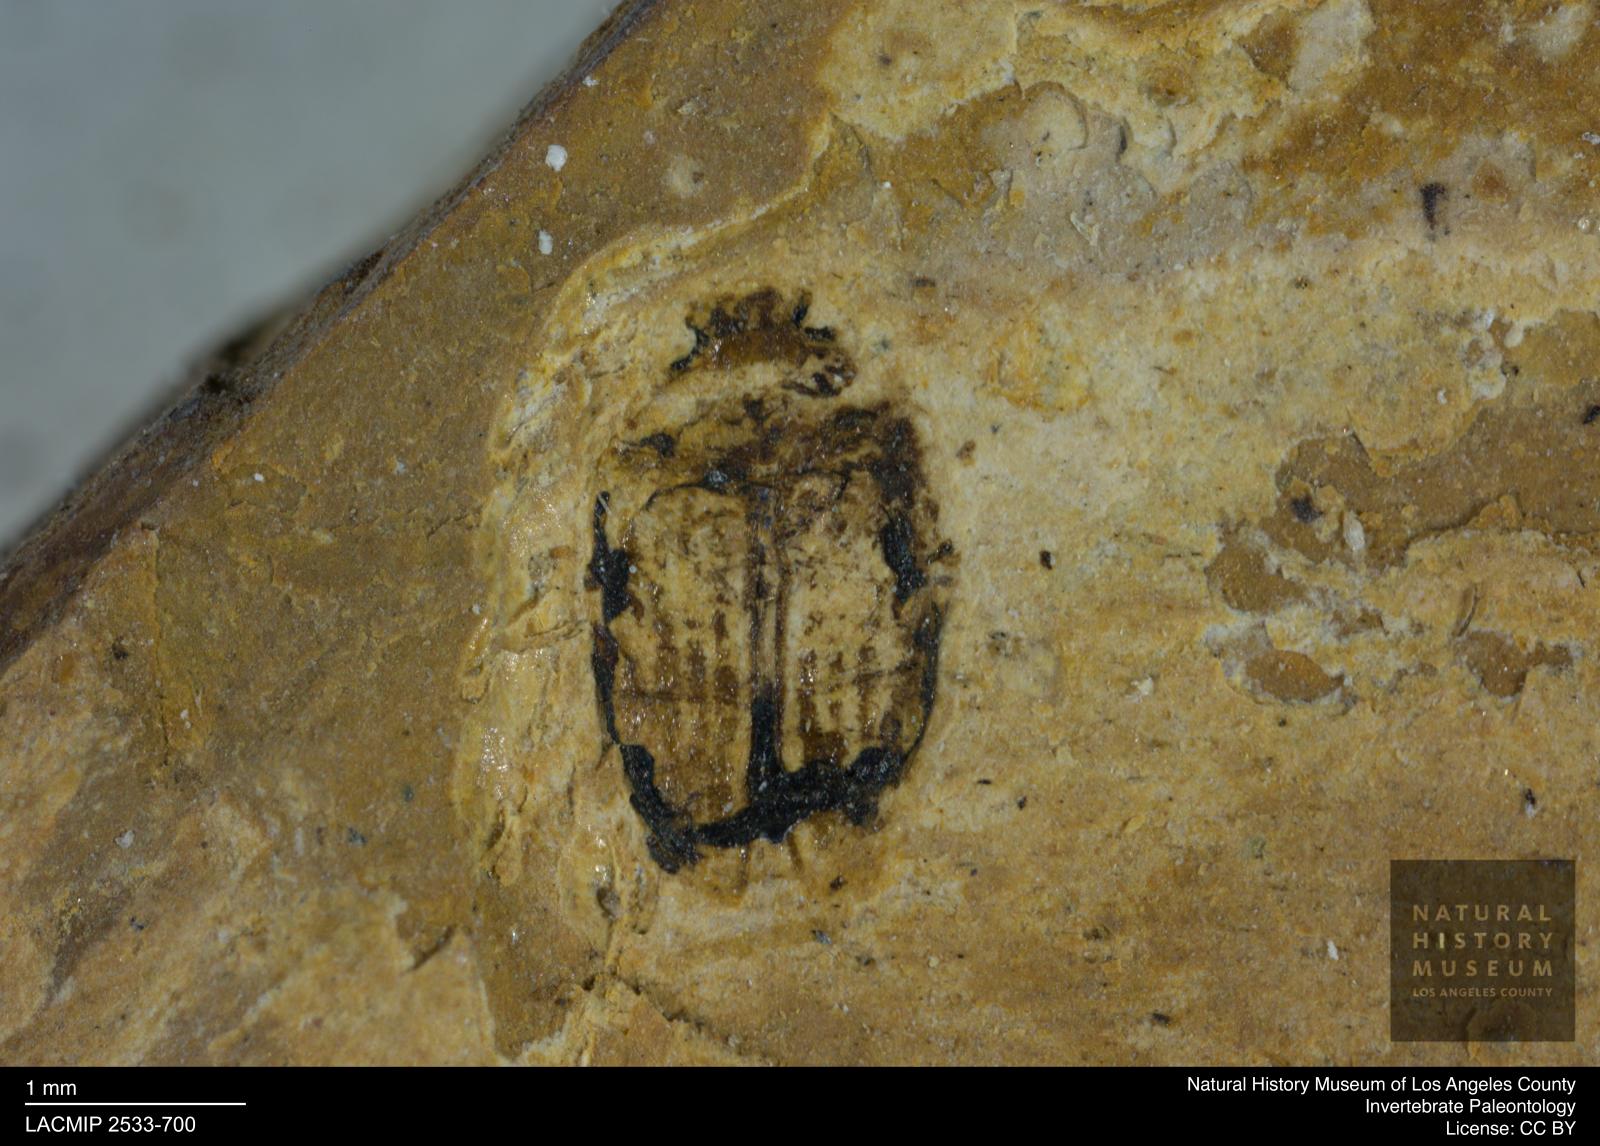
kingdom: Animalia
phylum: Arthropoda
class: Insecta
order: Coleoptera
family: Dytiscidae
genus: Oreodytes
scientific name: Oreodytes cryptolineatus
